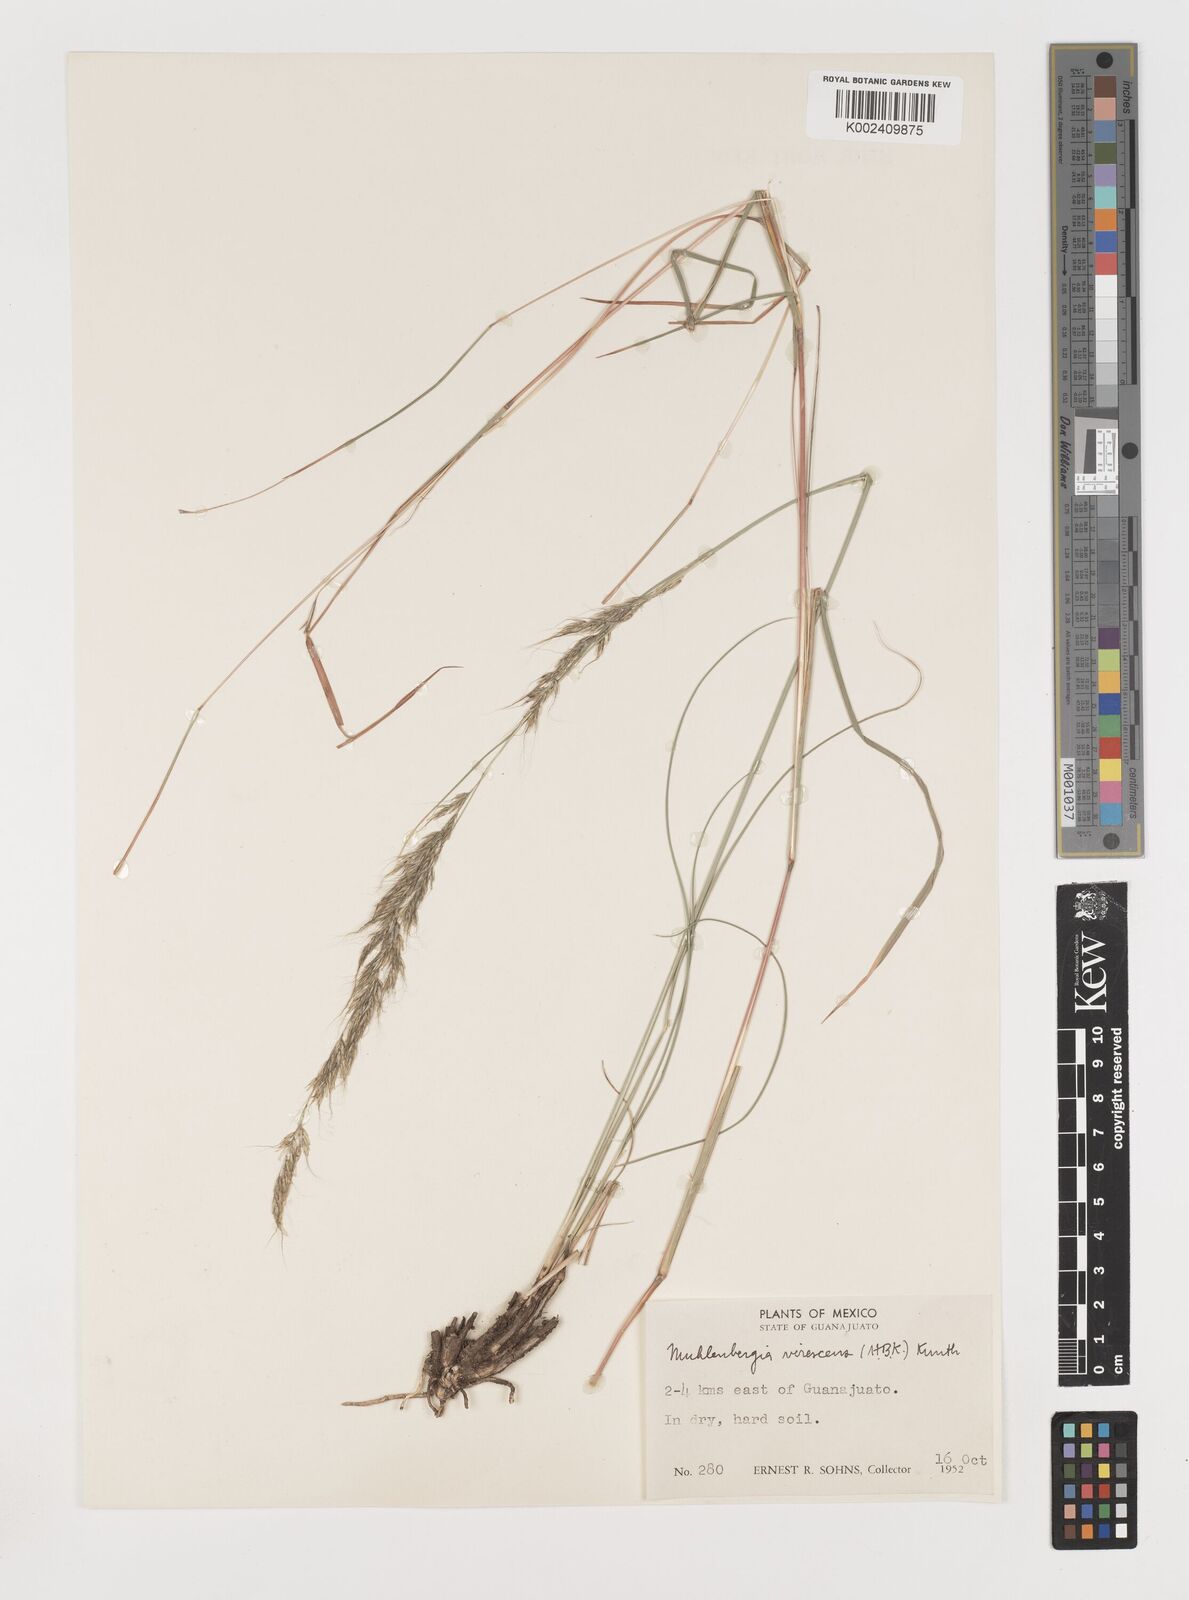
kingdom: Plantae
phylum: Tracheophyta
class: Liliopsida
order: Poales
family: Poaceae
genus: Muhlenbergia
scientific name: Muhlenbergia virescens
